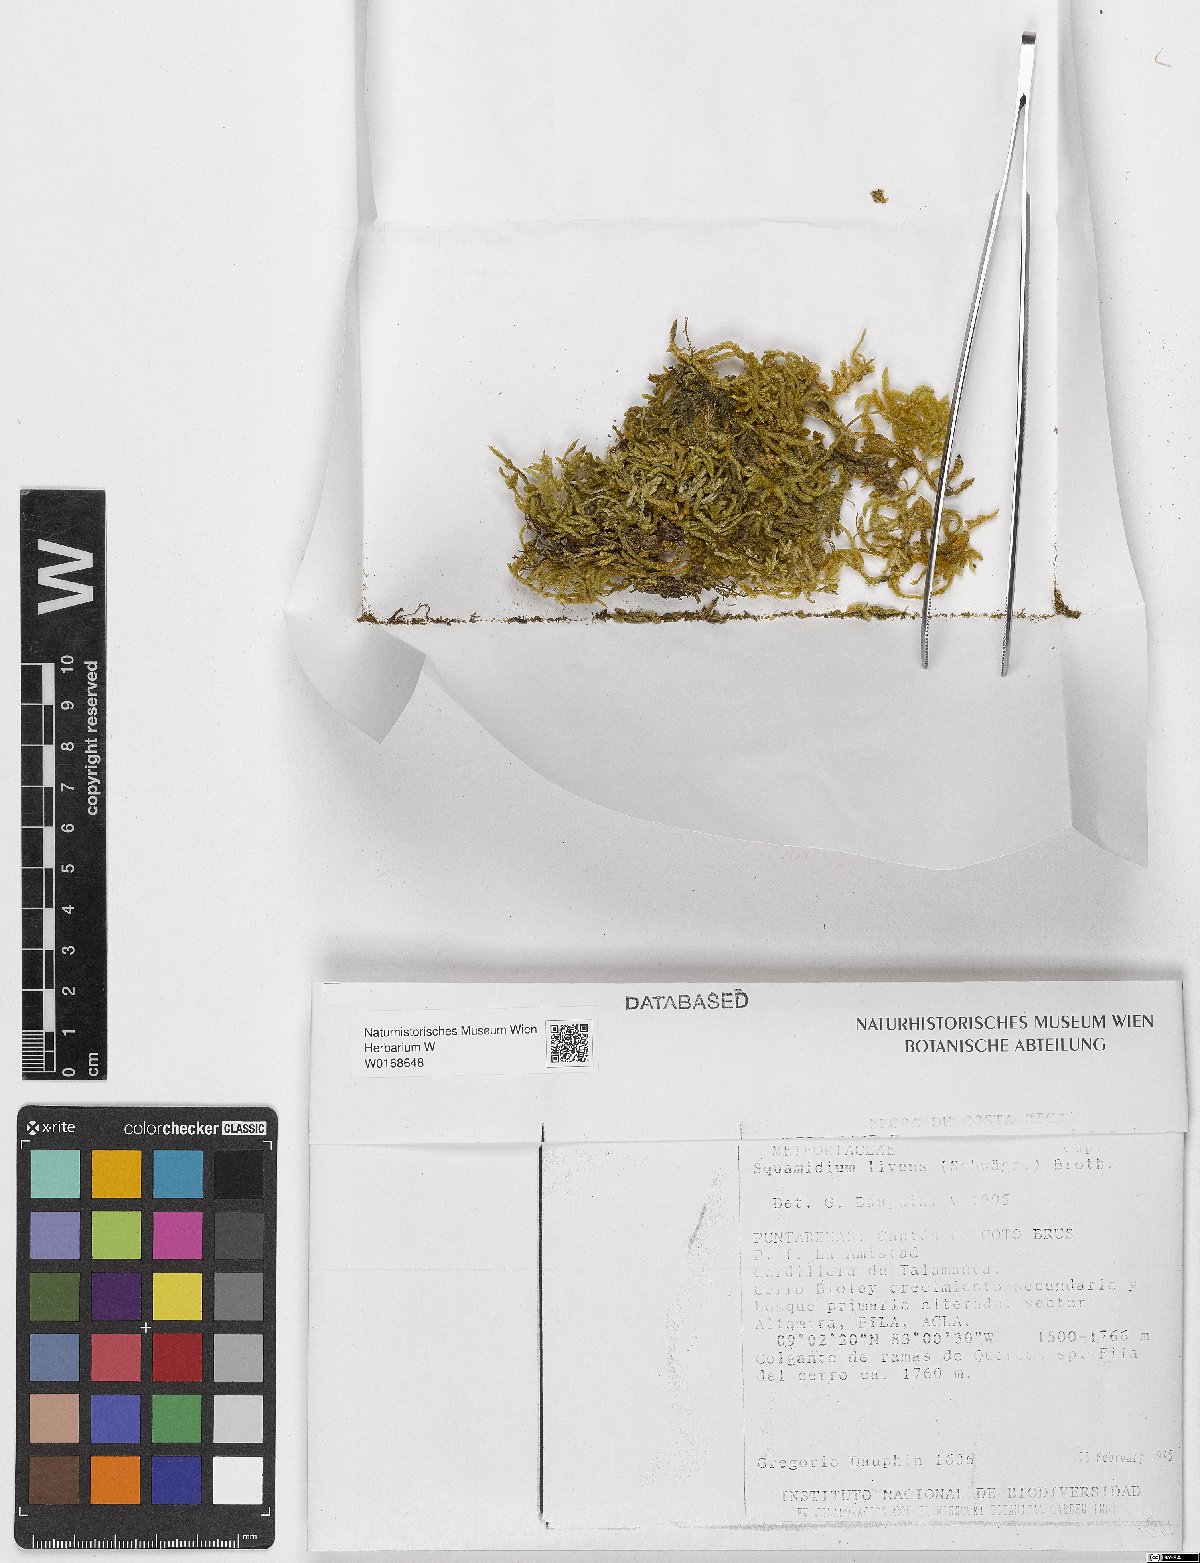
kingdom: Plantae
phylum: Bryophyta
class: Bryopsida
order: Hypnales
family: Brachytheciaceae
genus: Squamidium
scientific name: Squamidium livens
